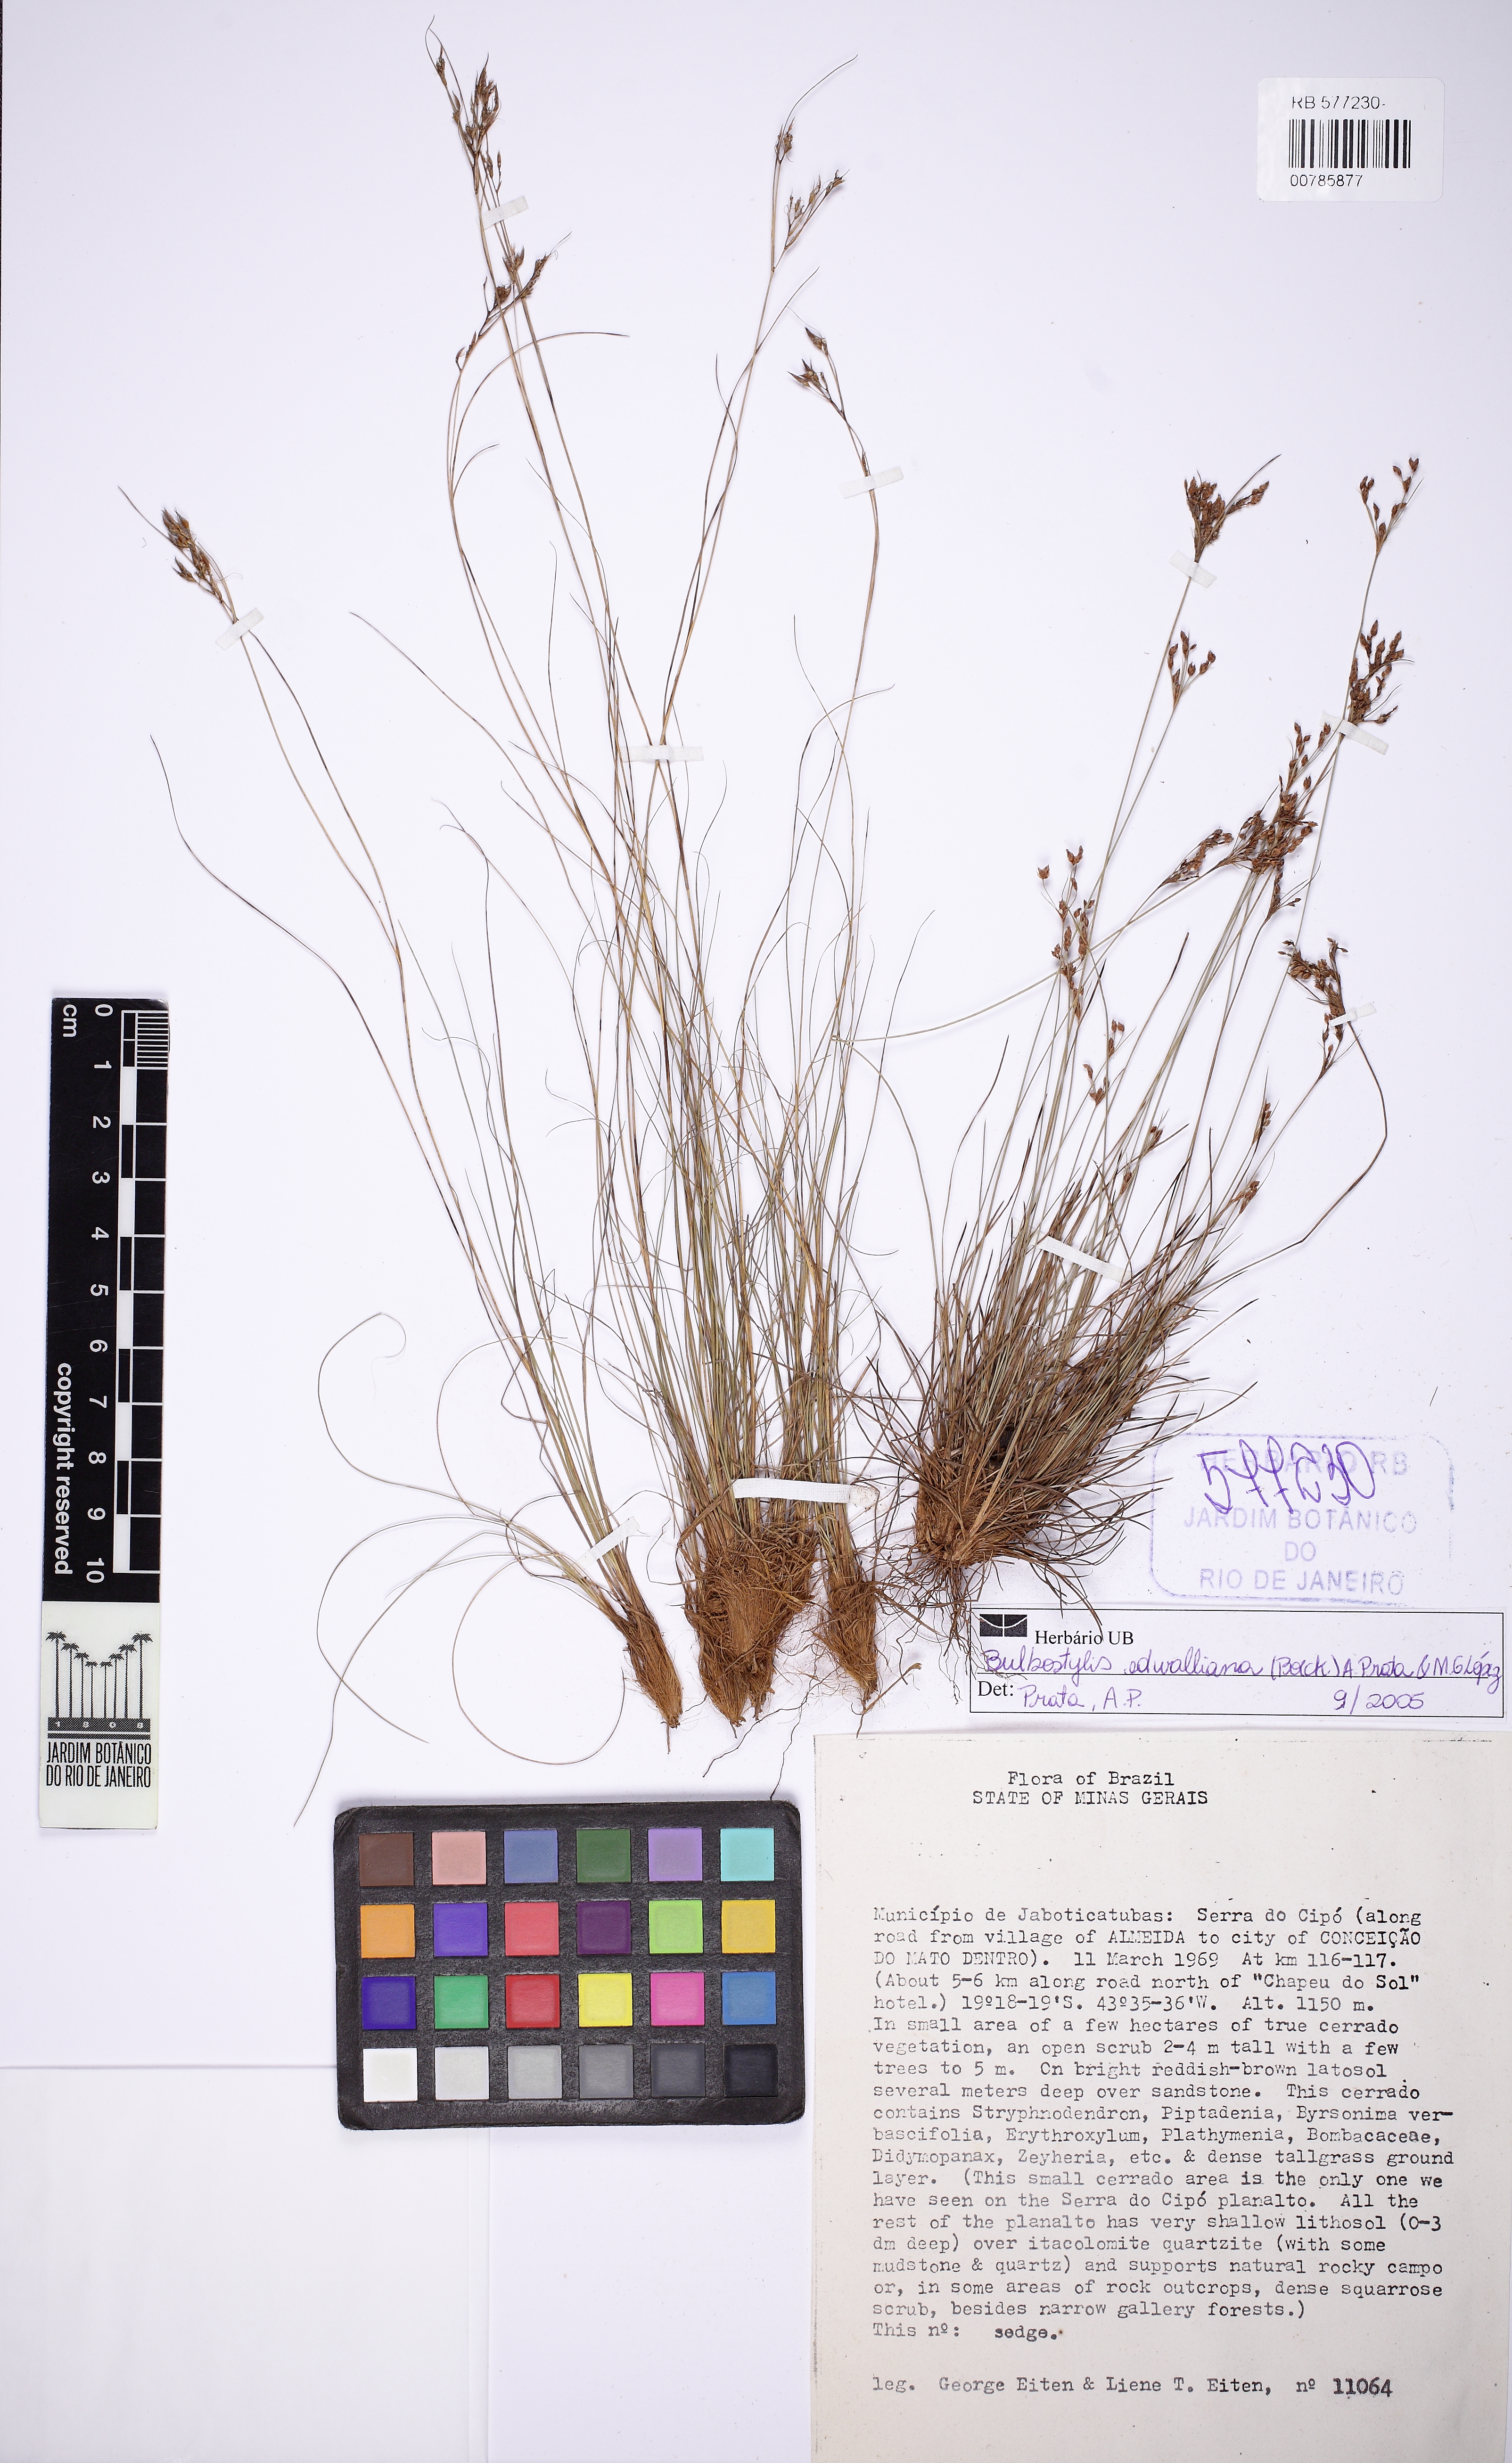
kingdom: Plantae
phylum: Tracheophyta
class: Liliopsida
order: Poales
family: Cyperaceae
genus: Rhynchospora
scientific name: Rhynchospora filiformis
